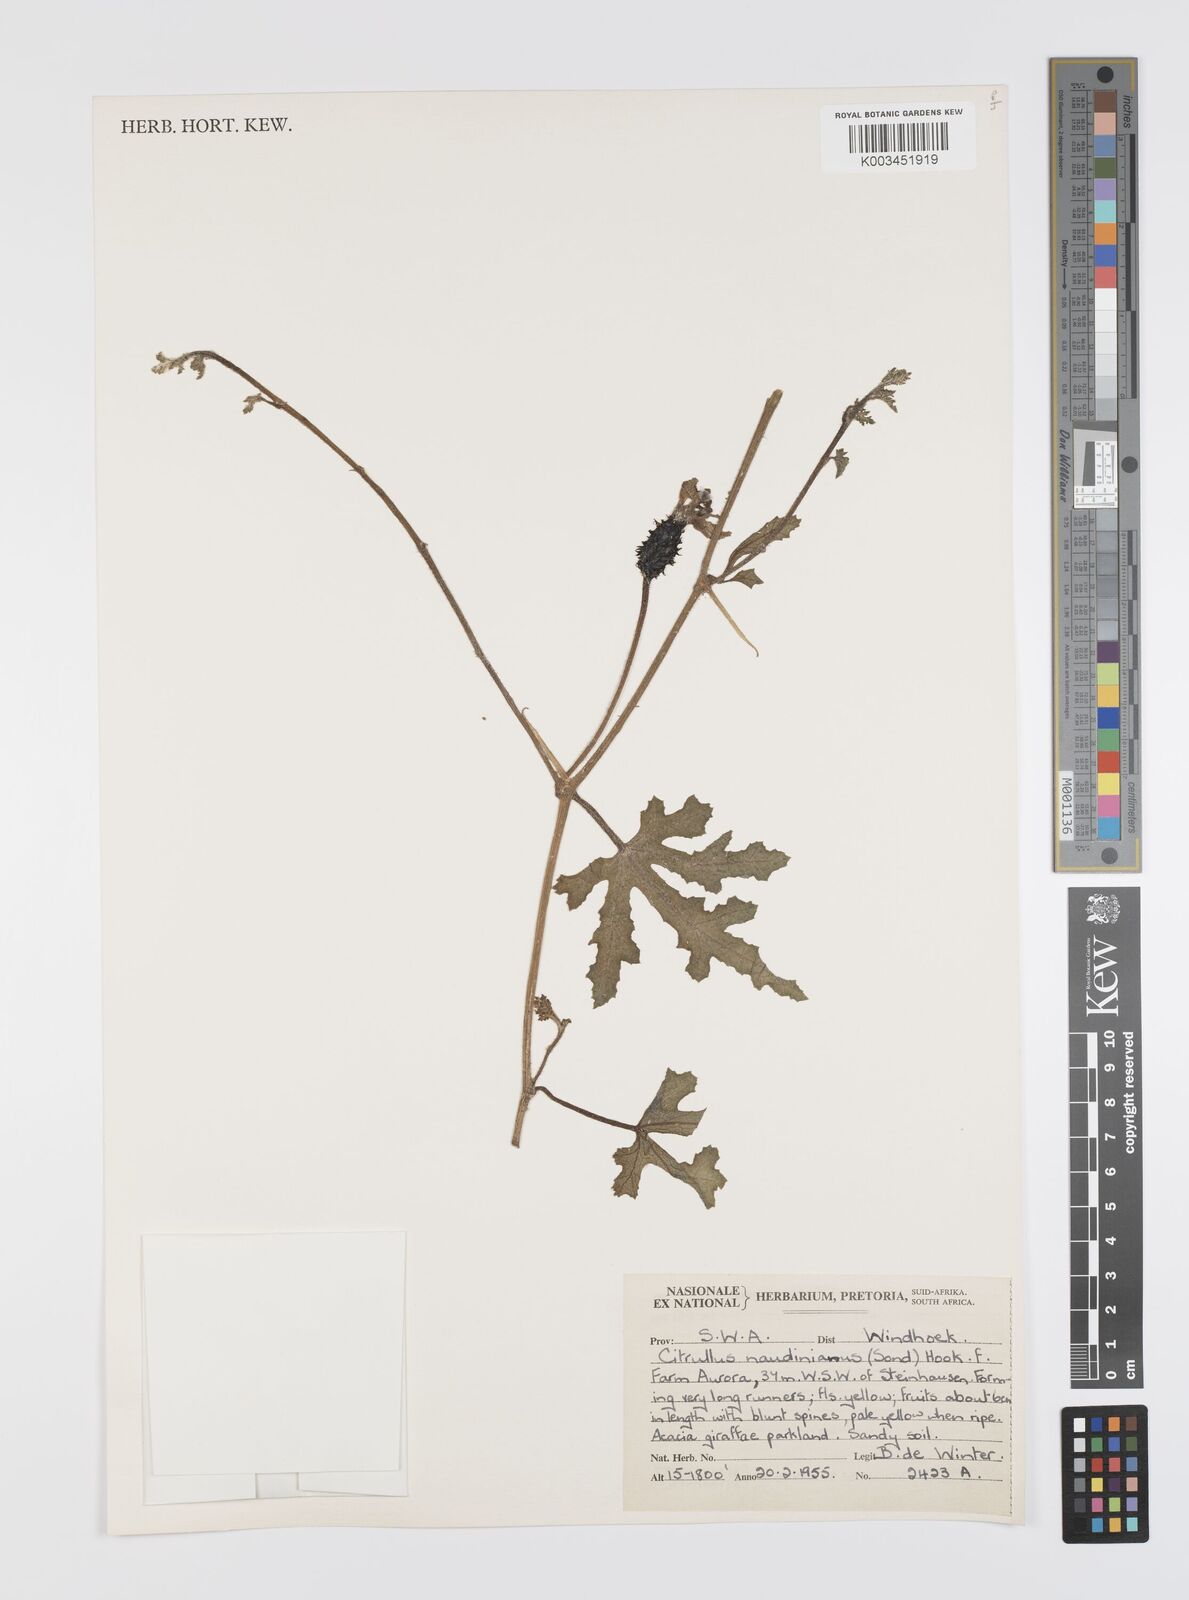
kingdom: Plantae
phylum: Tracheophyta
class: Magnoliopsida
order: Cucurbitales
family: Cucurbitaceae
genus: Citrullus
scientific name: Citrullus naudinianus
